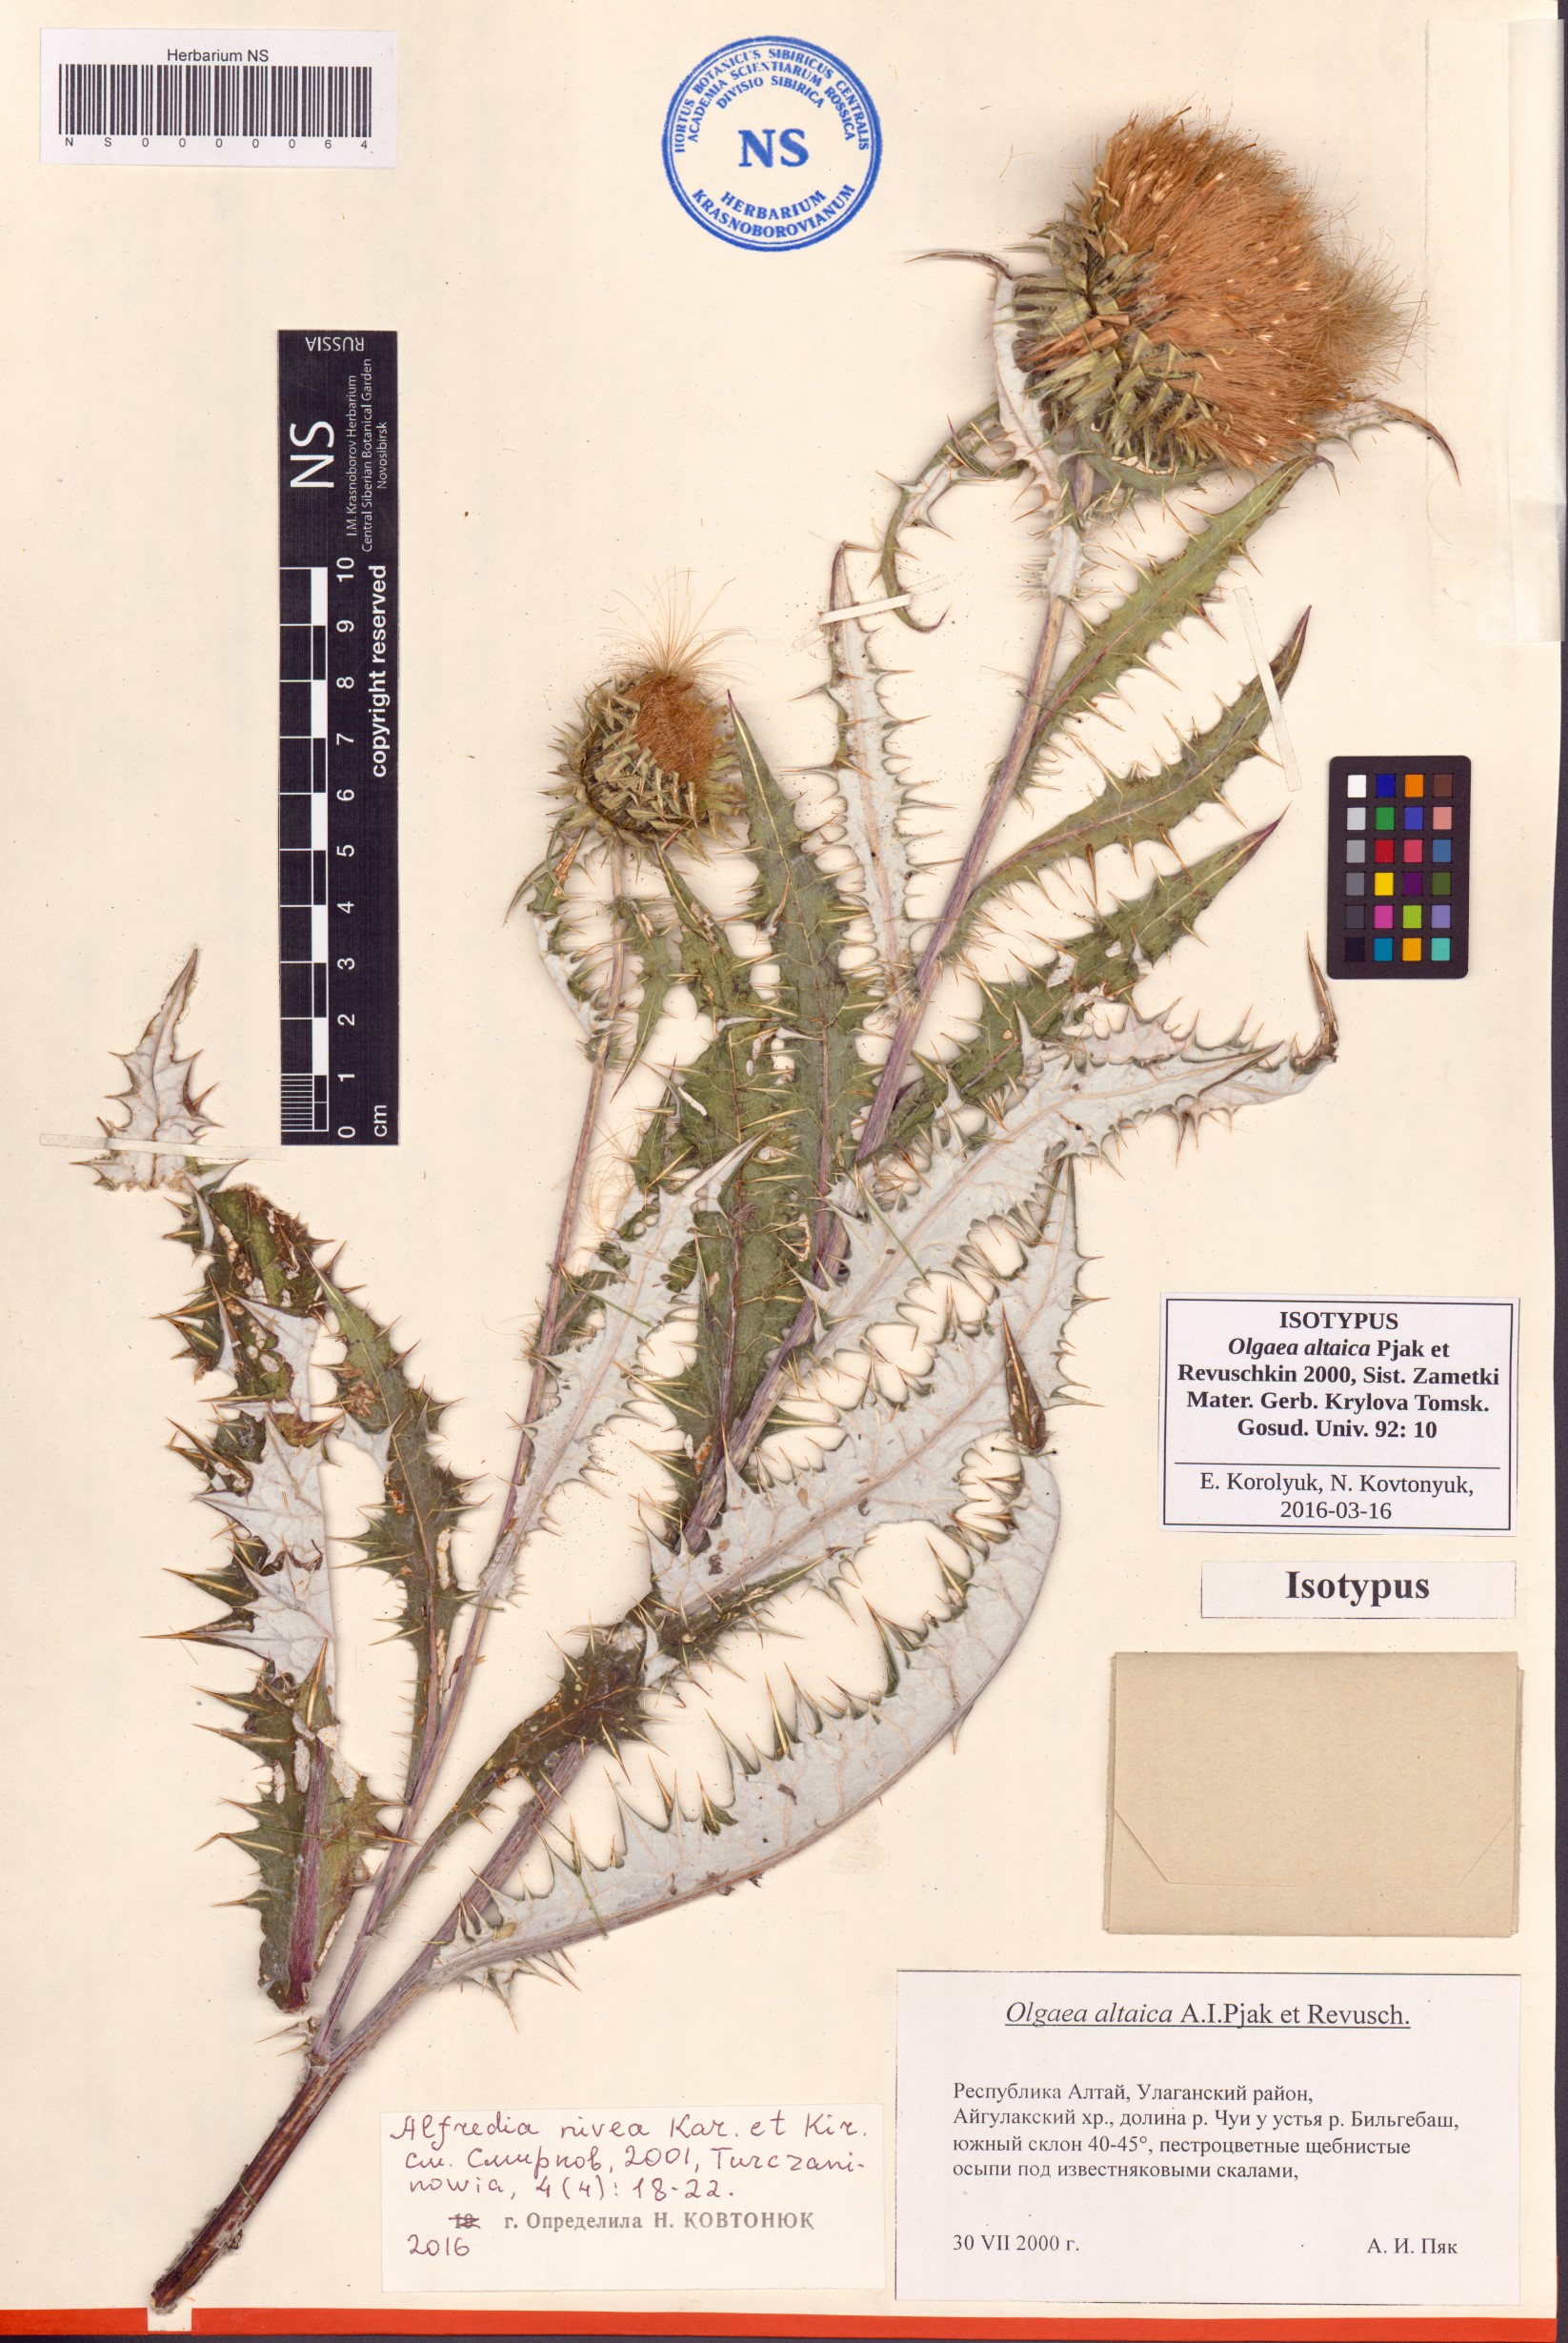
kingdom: Plantae
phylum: Tracheophyta
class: Magnoliopsida
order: Asterales
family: Asteraceae
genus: Olgaea
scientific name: Olgaea altaica
